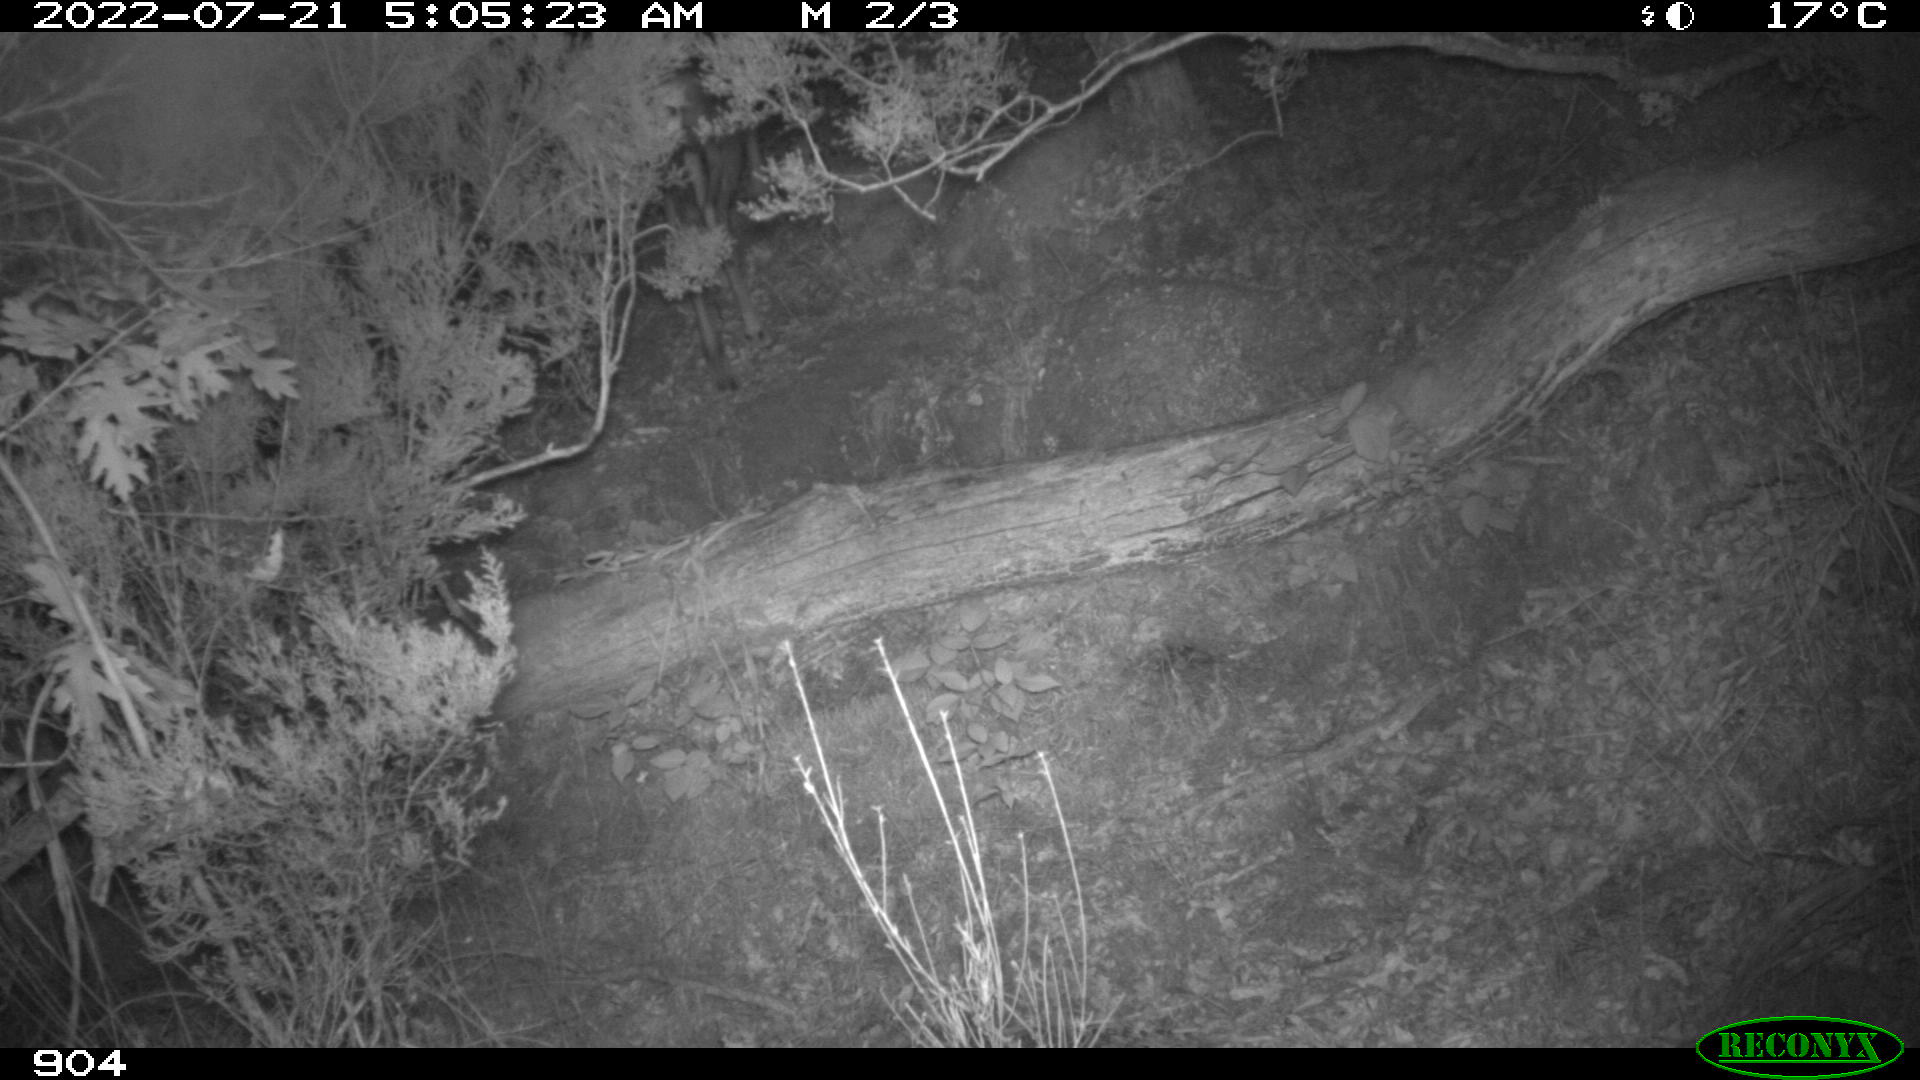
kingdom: Animalia
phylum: Chordata
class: Mammalia
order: Artiodactyla
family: Cervidae
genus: Capreolus
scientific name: Capreolus capreolus
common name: Western roe deer
